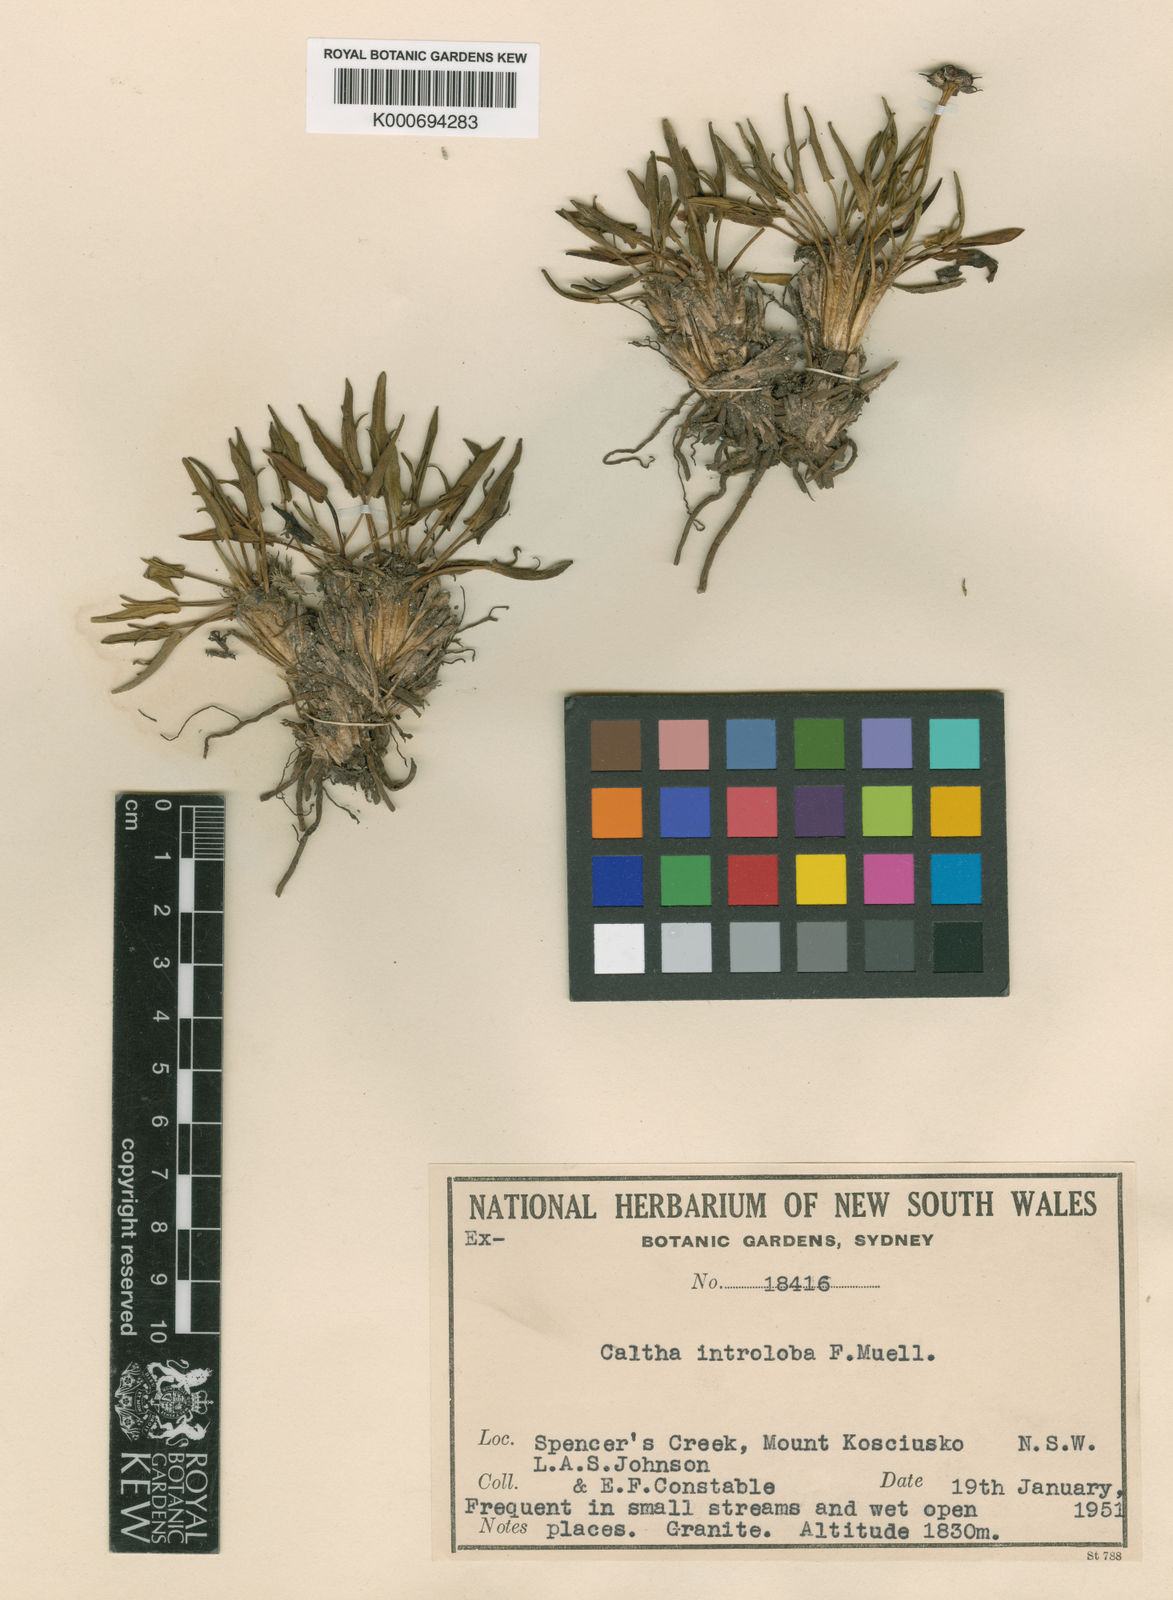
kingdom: Plantae
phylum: Tracheophyta
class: Magnoliopsida
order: Ranunculales
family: Ranunculaceae
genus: Caltha
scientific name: Caltha introloba
